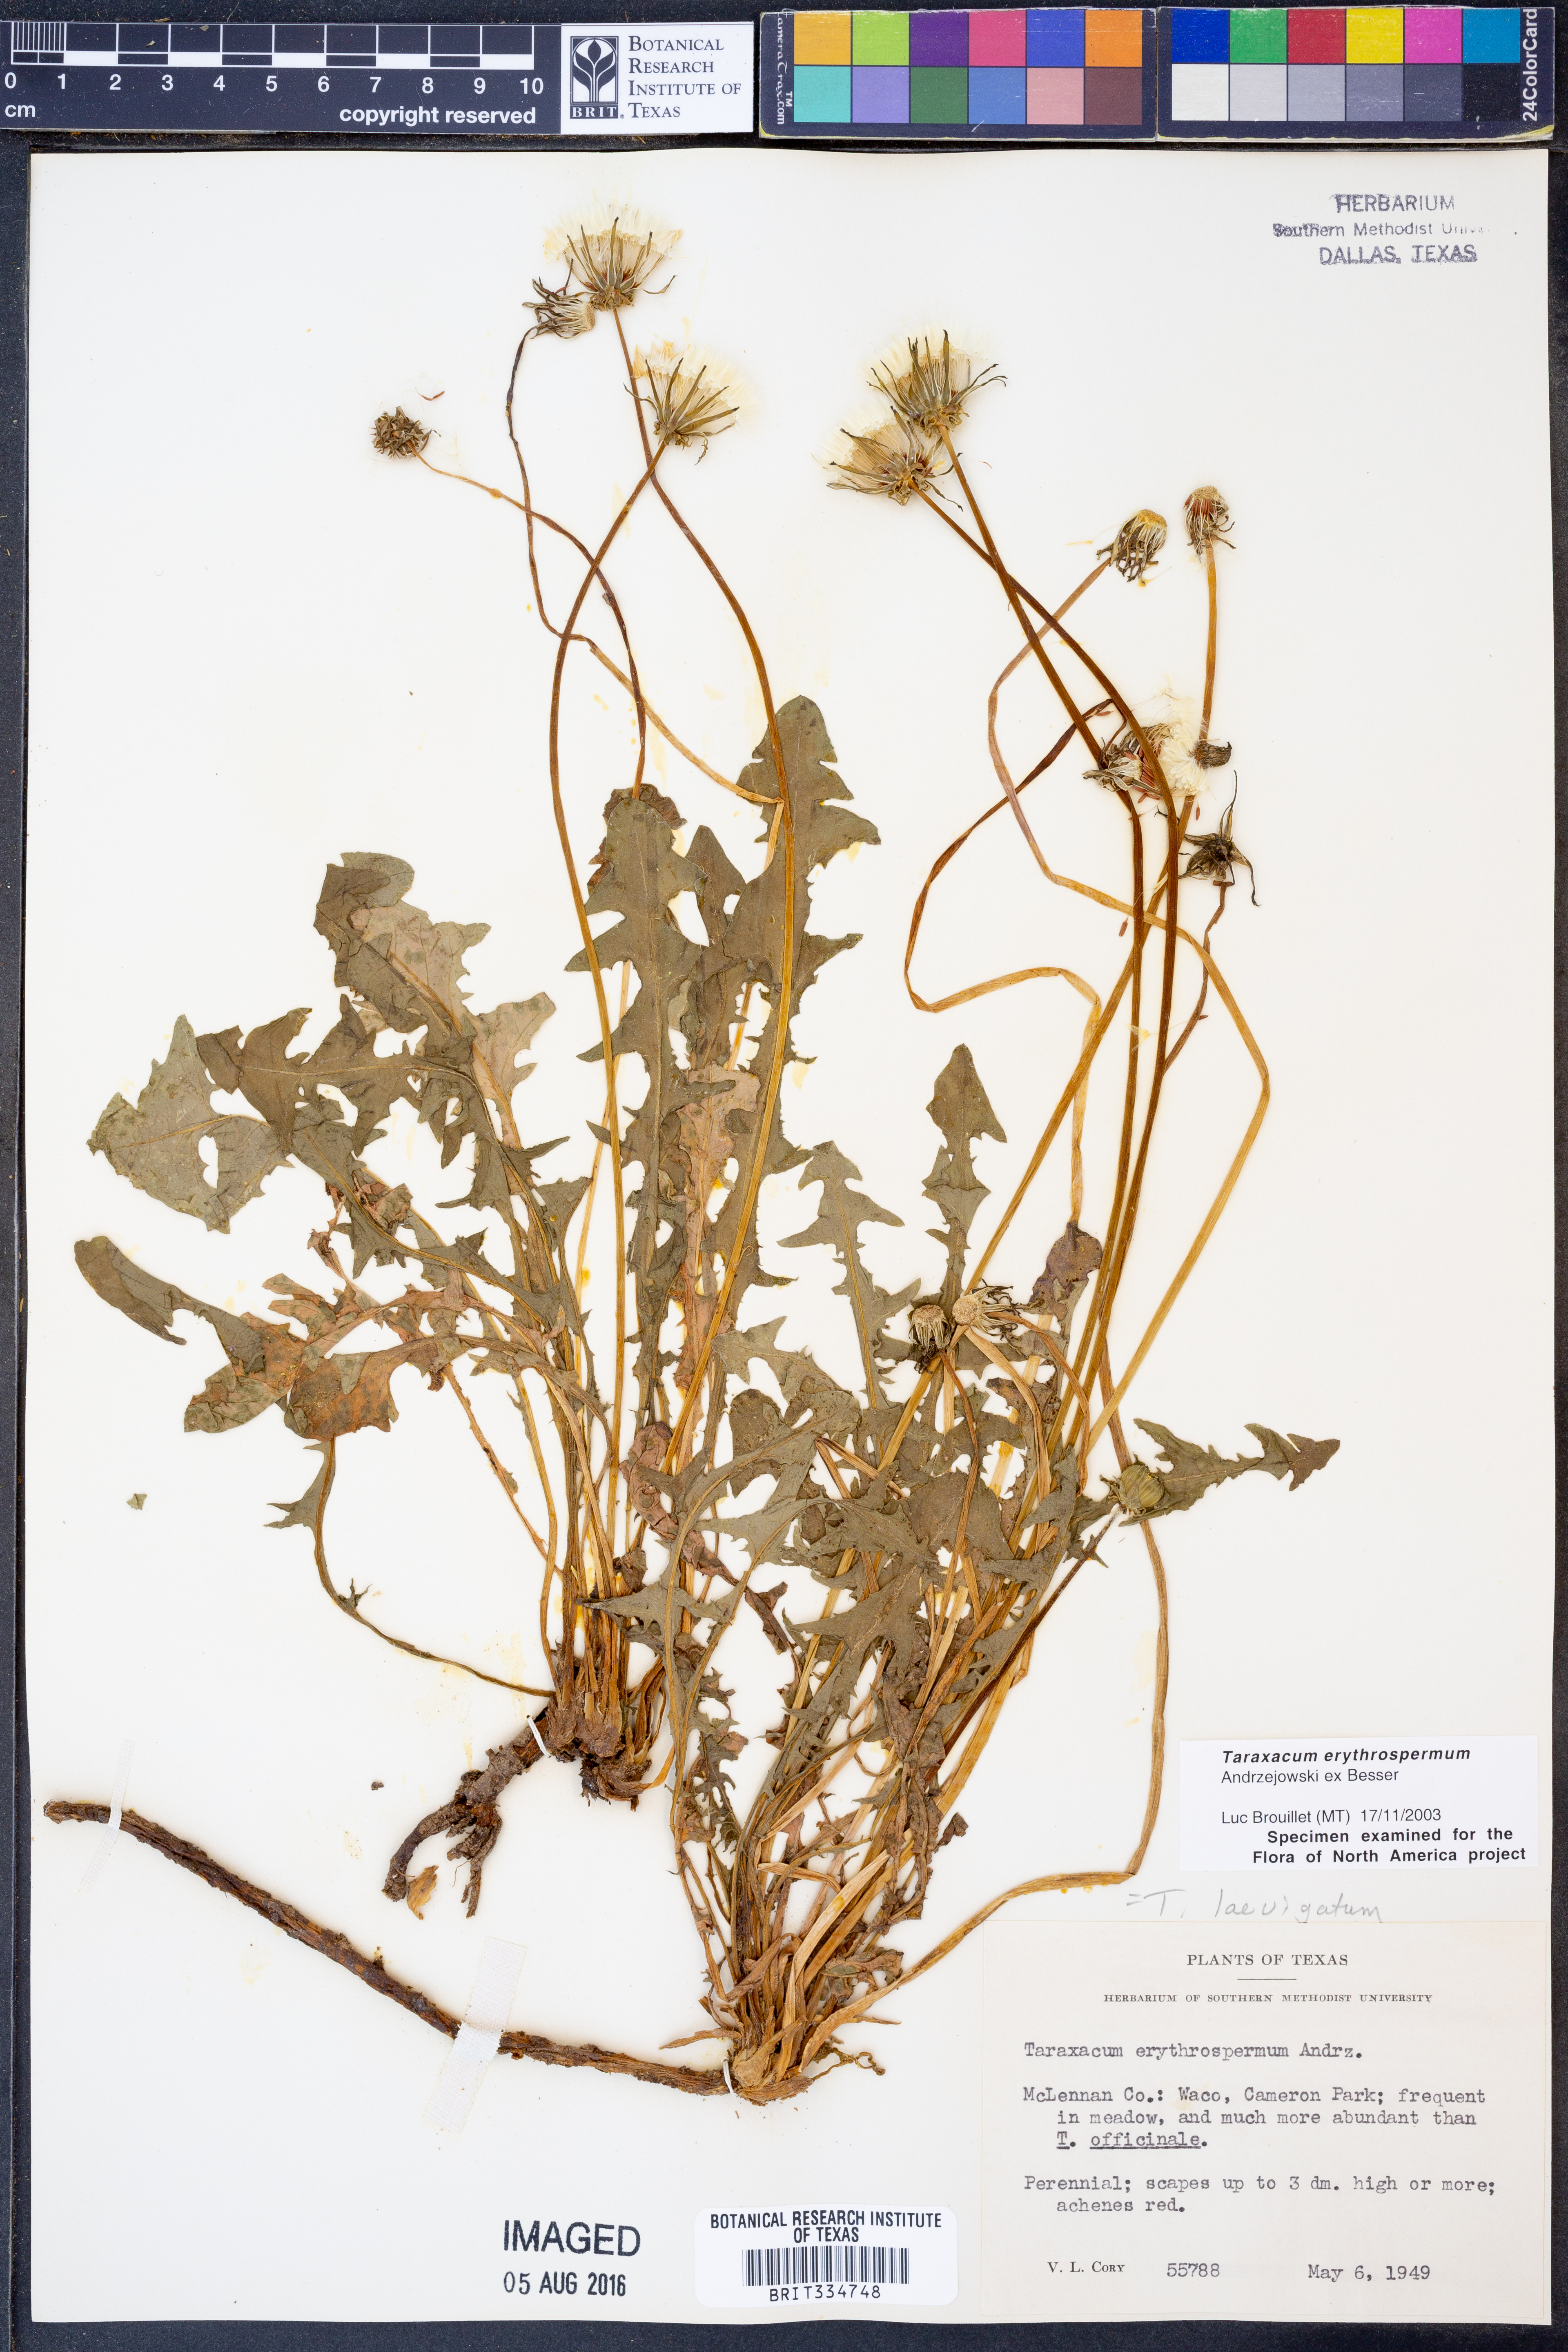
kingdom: Plantae
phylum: Tracheophyta
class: Magnoliopsida
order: Asterales
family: Asteraceae
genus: Taraxacum
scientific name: Taraxacum erythrospermum
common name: Rock dandelion
